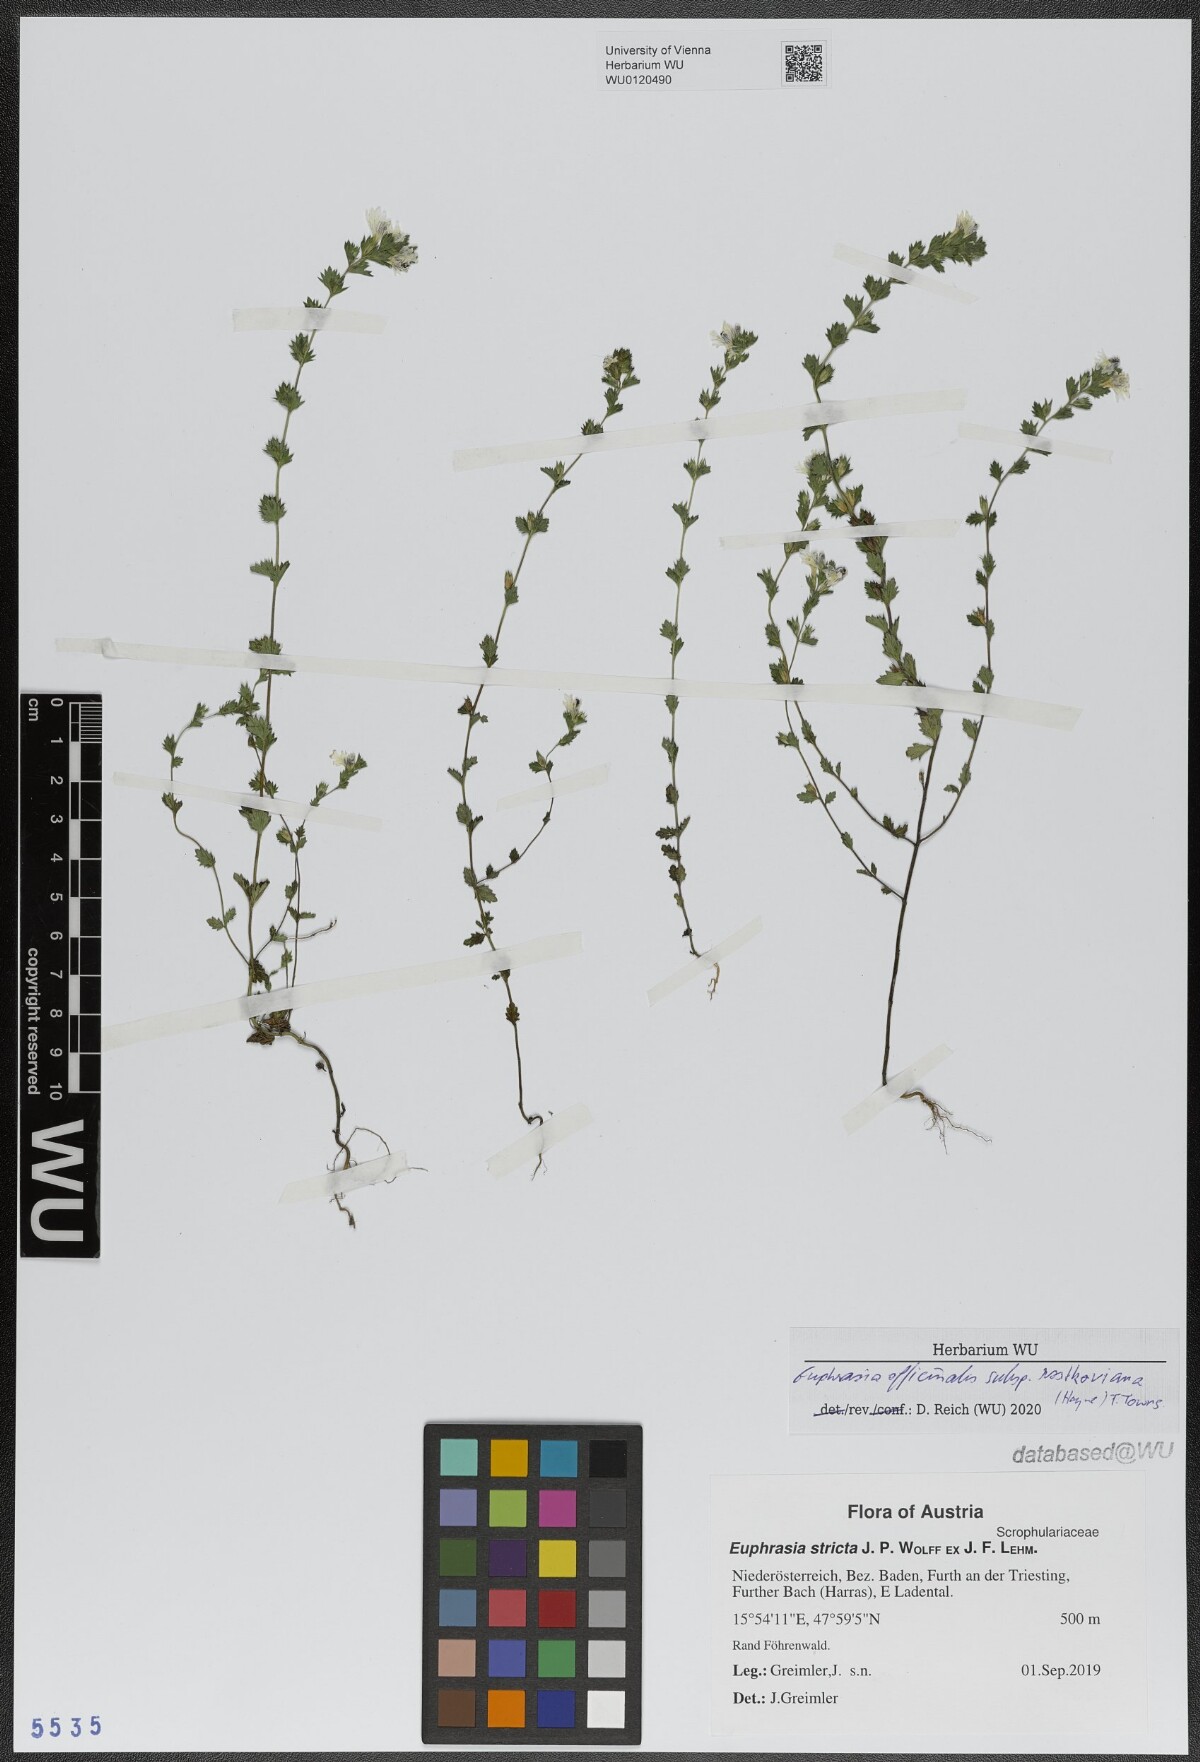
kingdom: Plantae
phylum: Tracheophyta
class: Magnoliopsida
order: Lamiales
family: Orobanchaceae
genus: Euphrasia
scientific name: Euphrasia officinalis
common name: Eyebright
